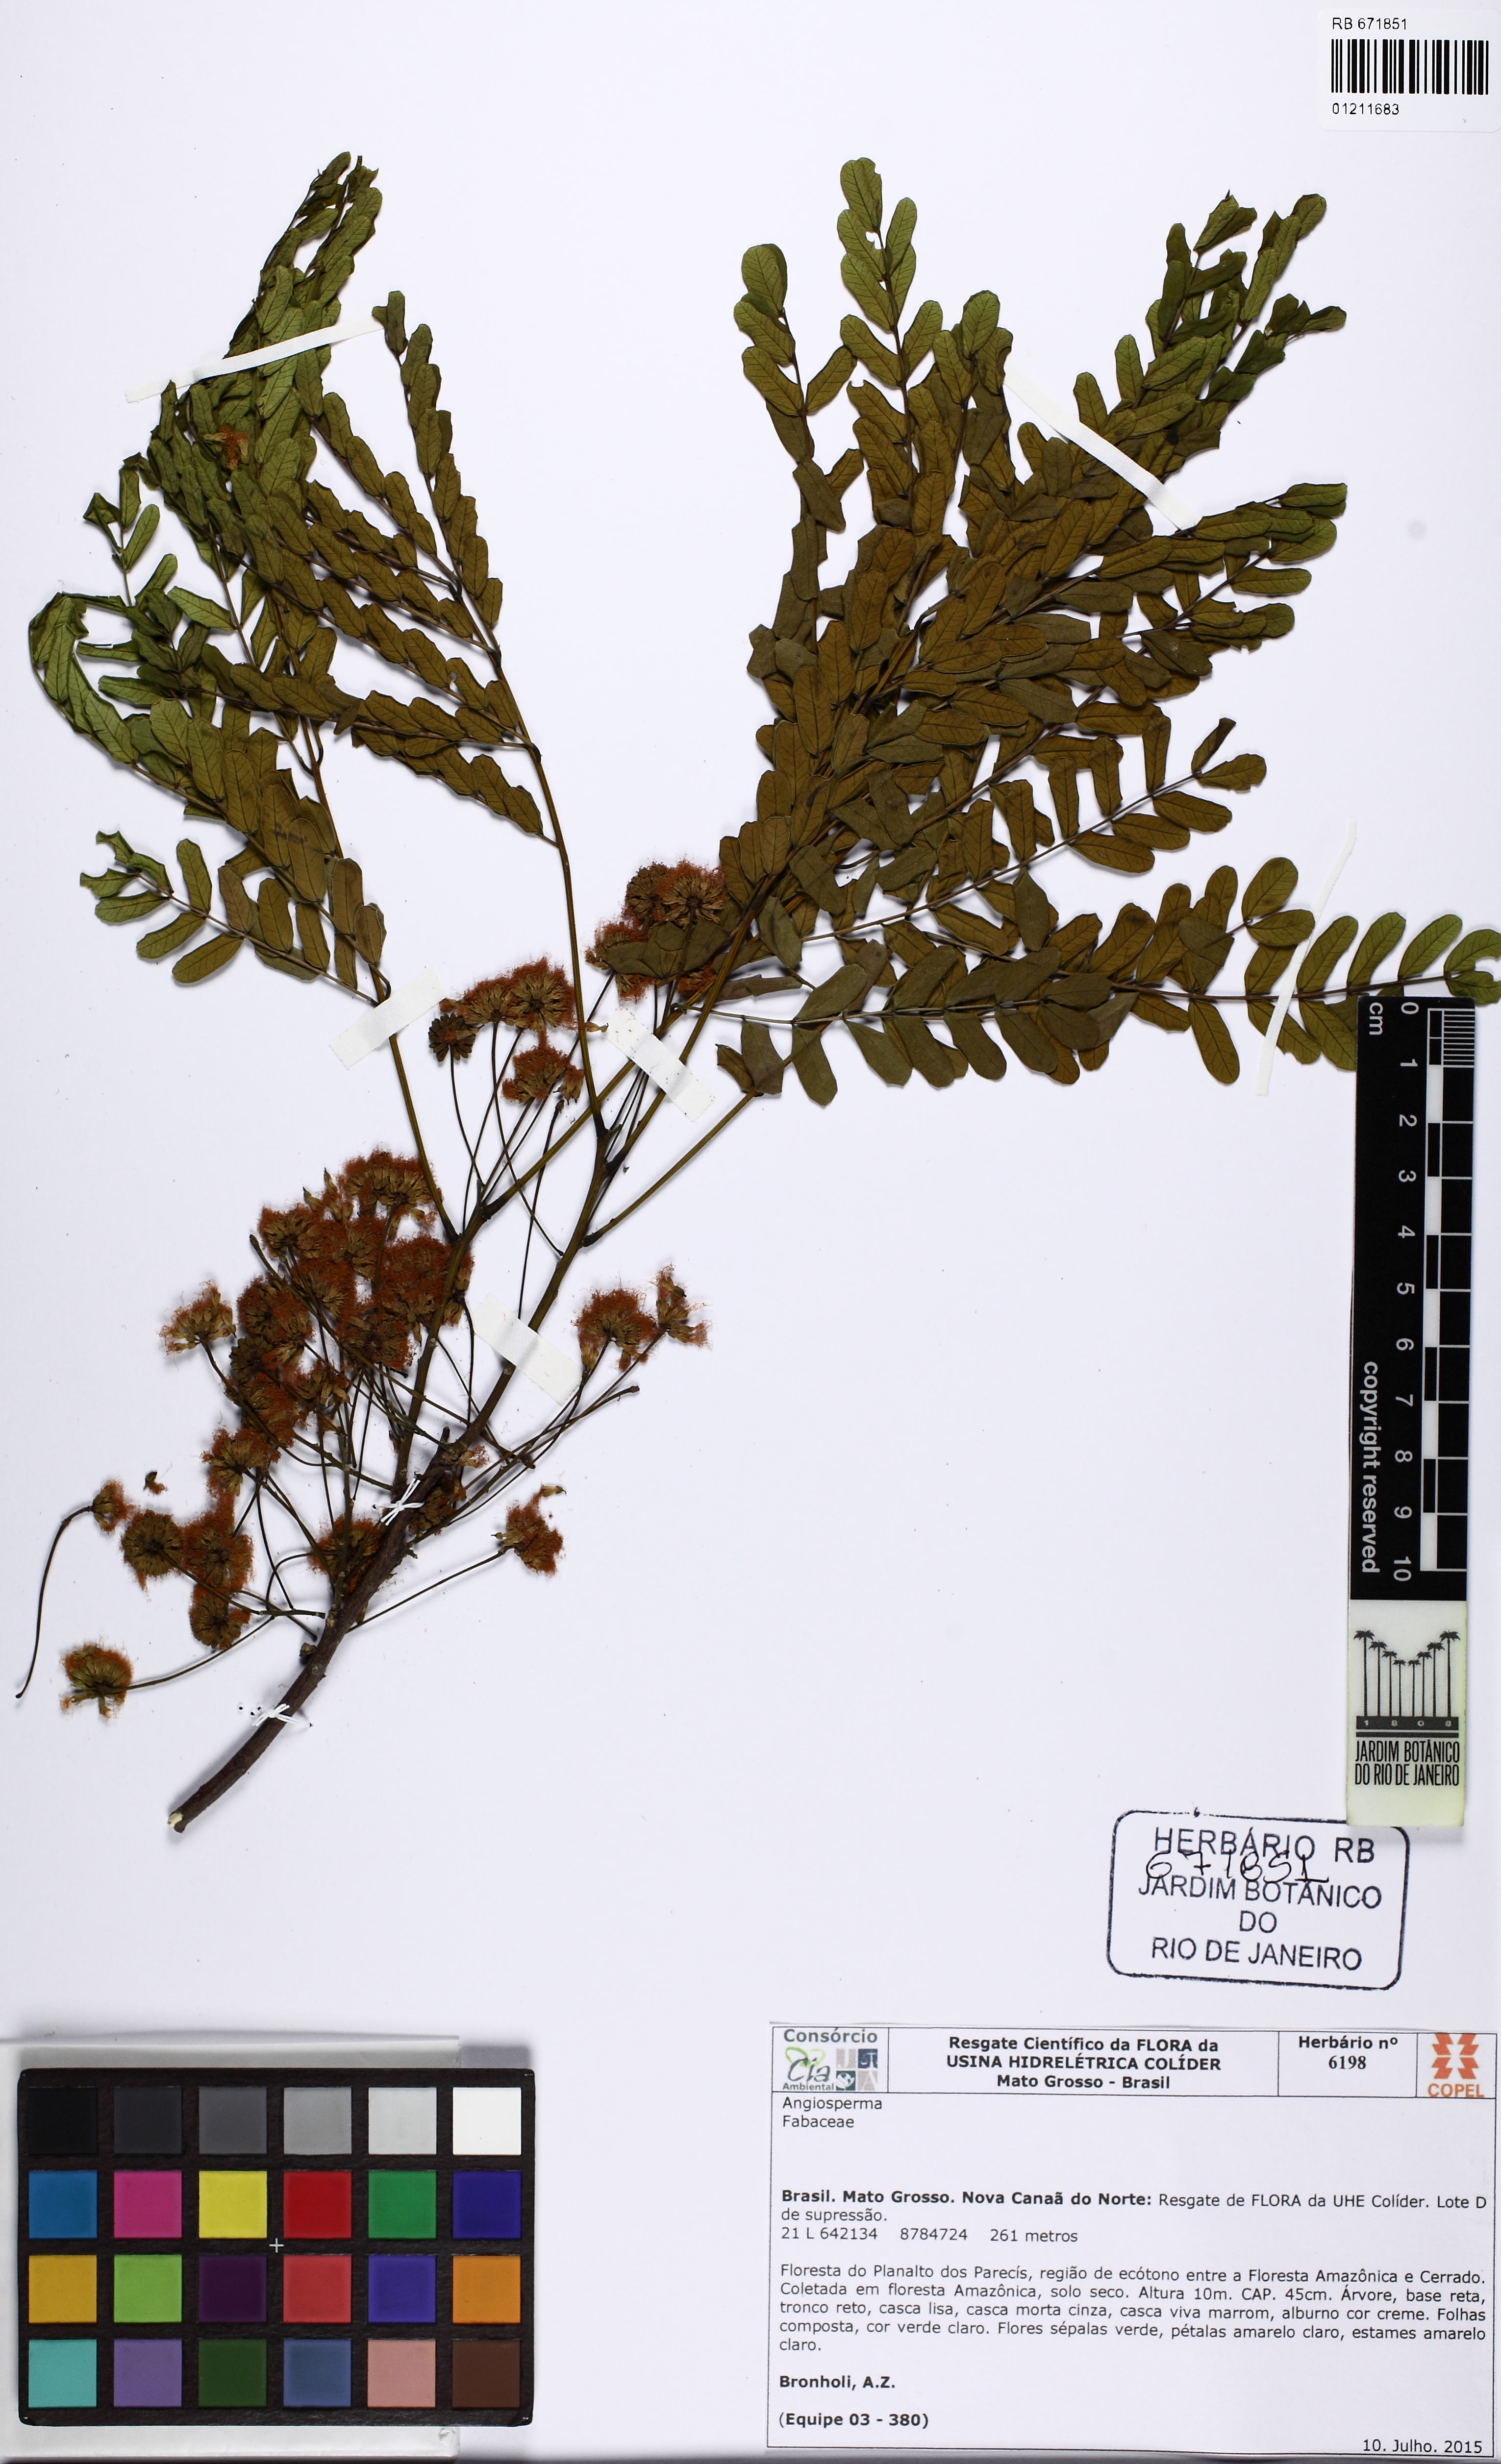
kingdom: Plantae
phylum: Tracheophyta
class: Magnoliopsida
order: Fabales
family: Fabaceae
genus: Albizia
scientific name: Albizia polycephala
